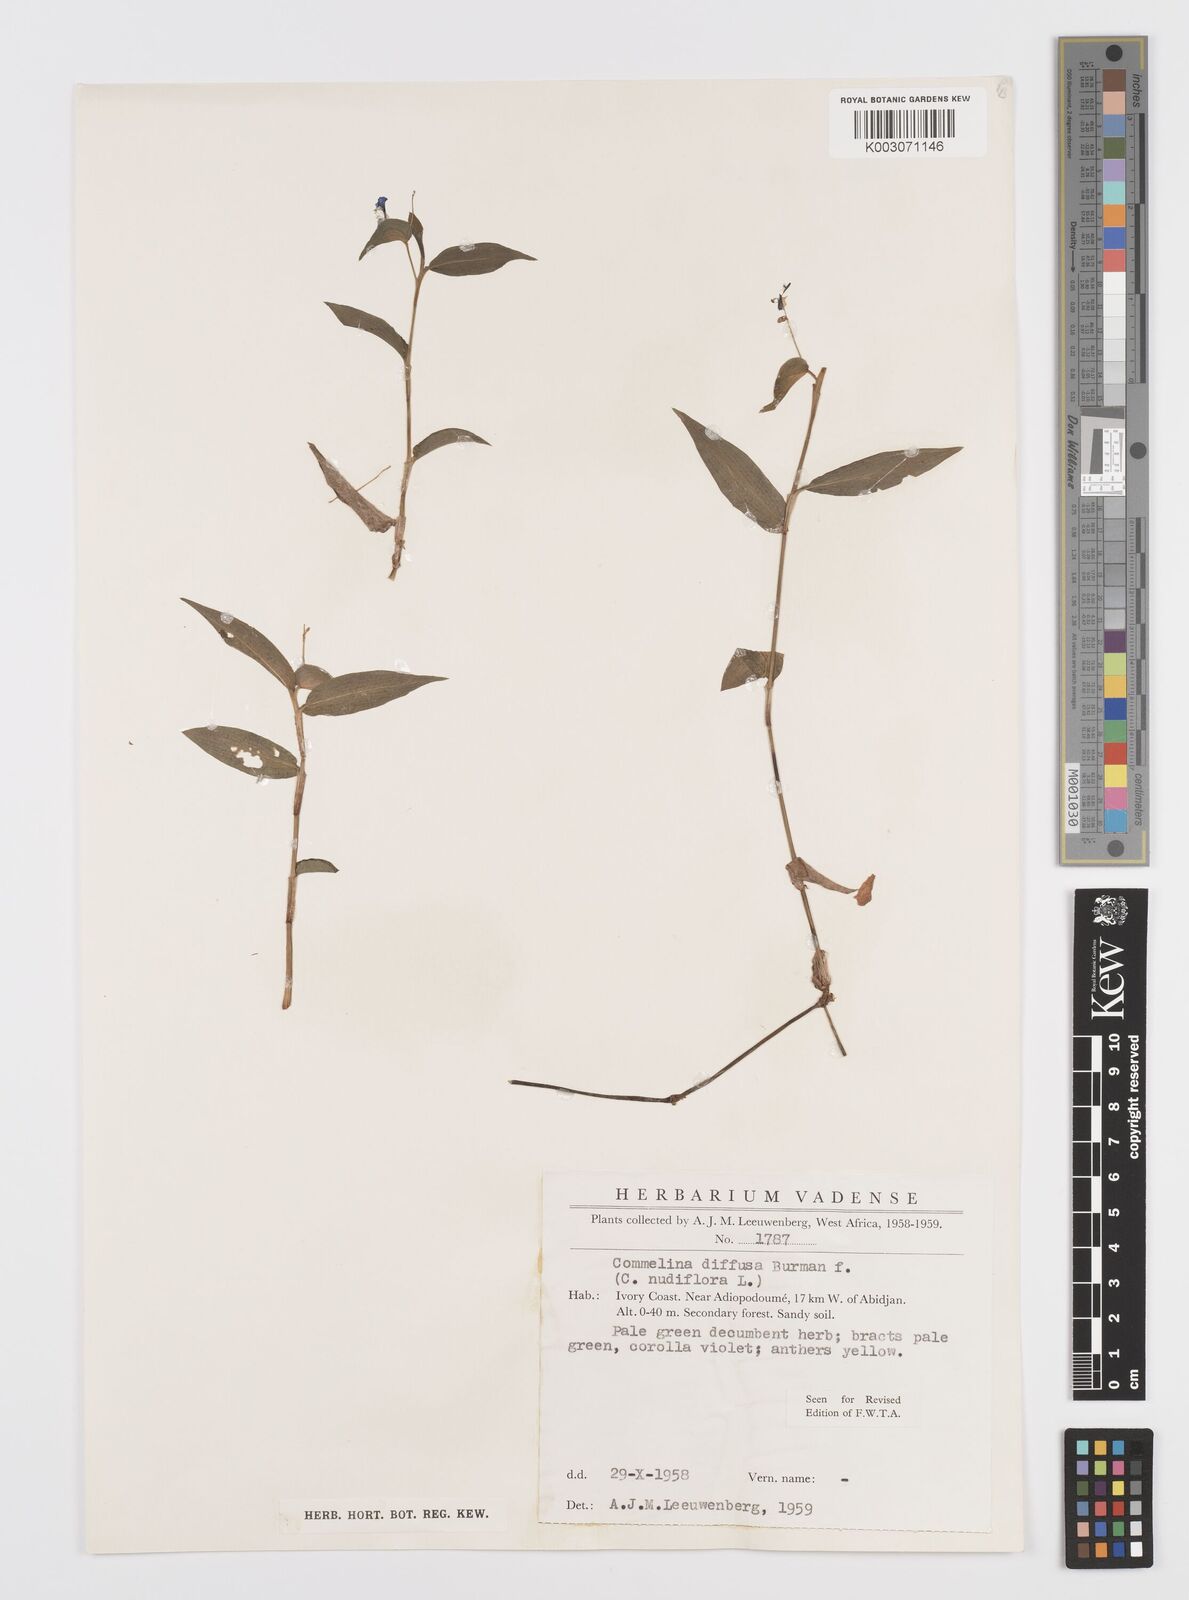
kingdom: Plantae
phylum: Tracheophyta
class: Liliopsida
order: Commelinales
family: Commelinaceae
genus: Commelina
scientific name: Commelina diffusa
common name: Climbing dayflower
